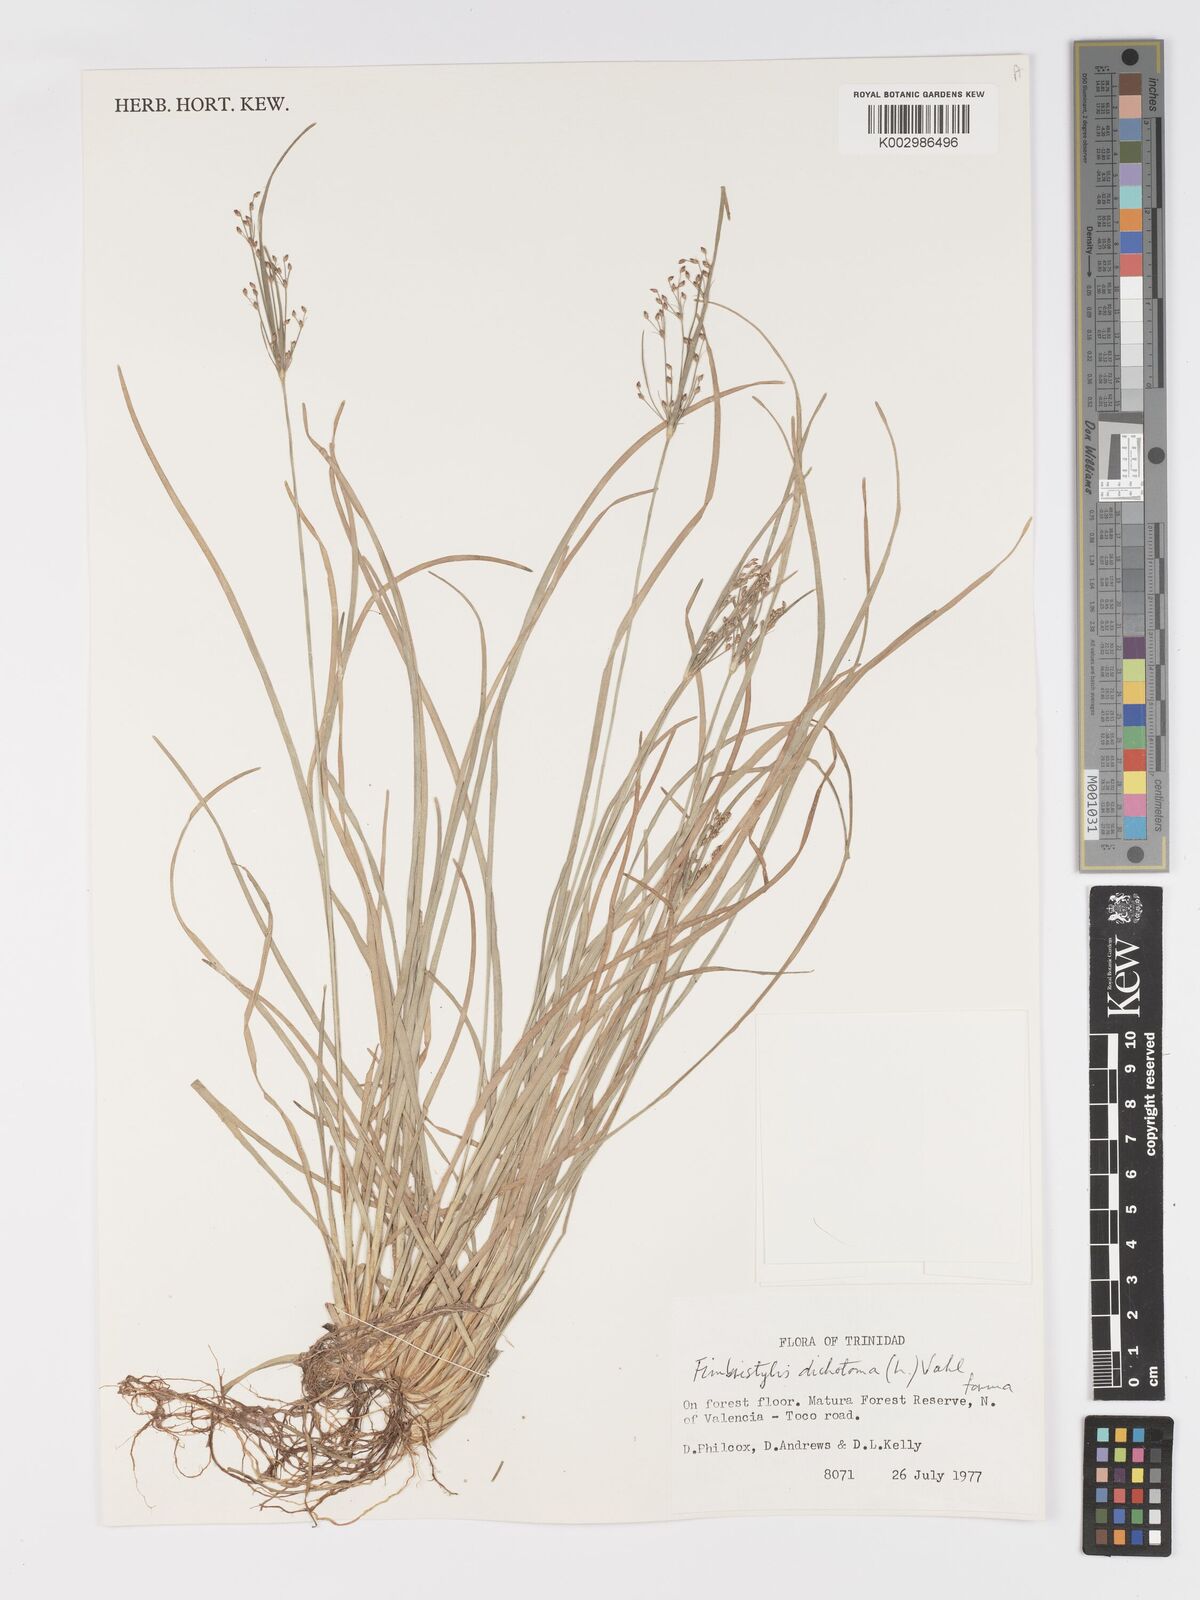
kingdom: Plantae
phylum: Tracheophyta
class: Liliopsida
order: Poales
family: Cyperaceae
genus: Fimbristylis
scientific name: Fimbristylis dichotoma
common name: Forked fimbry
